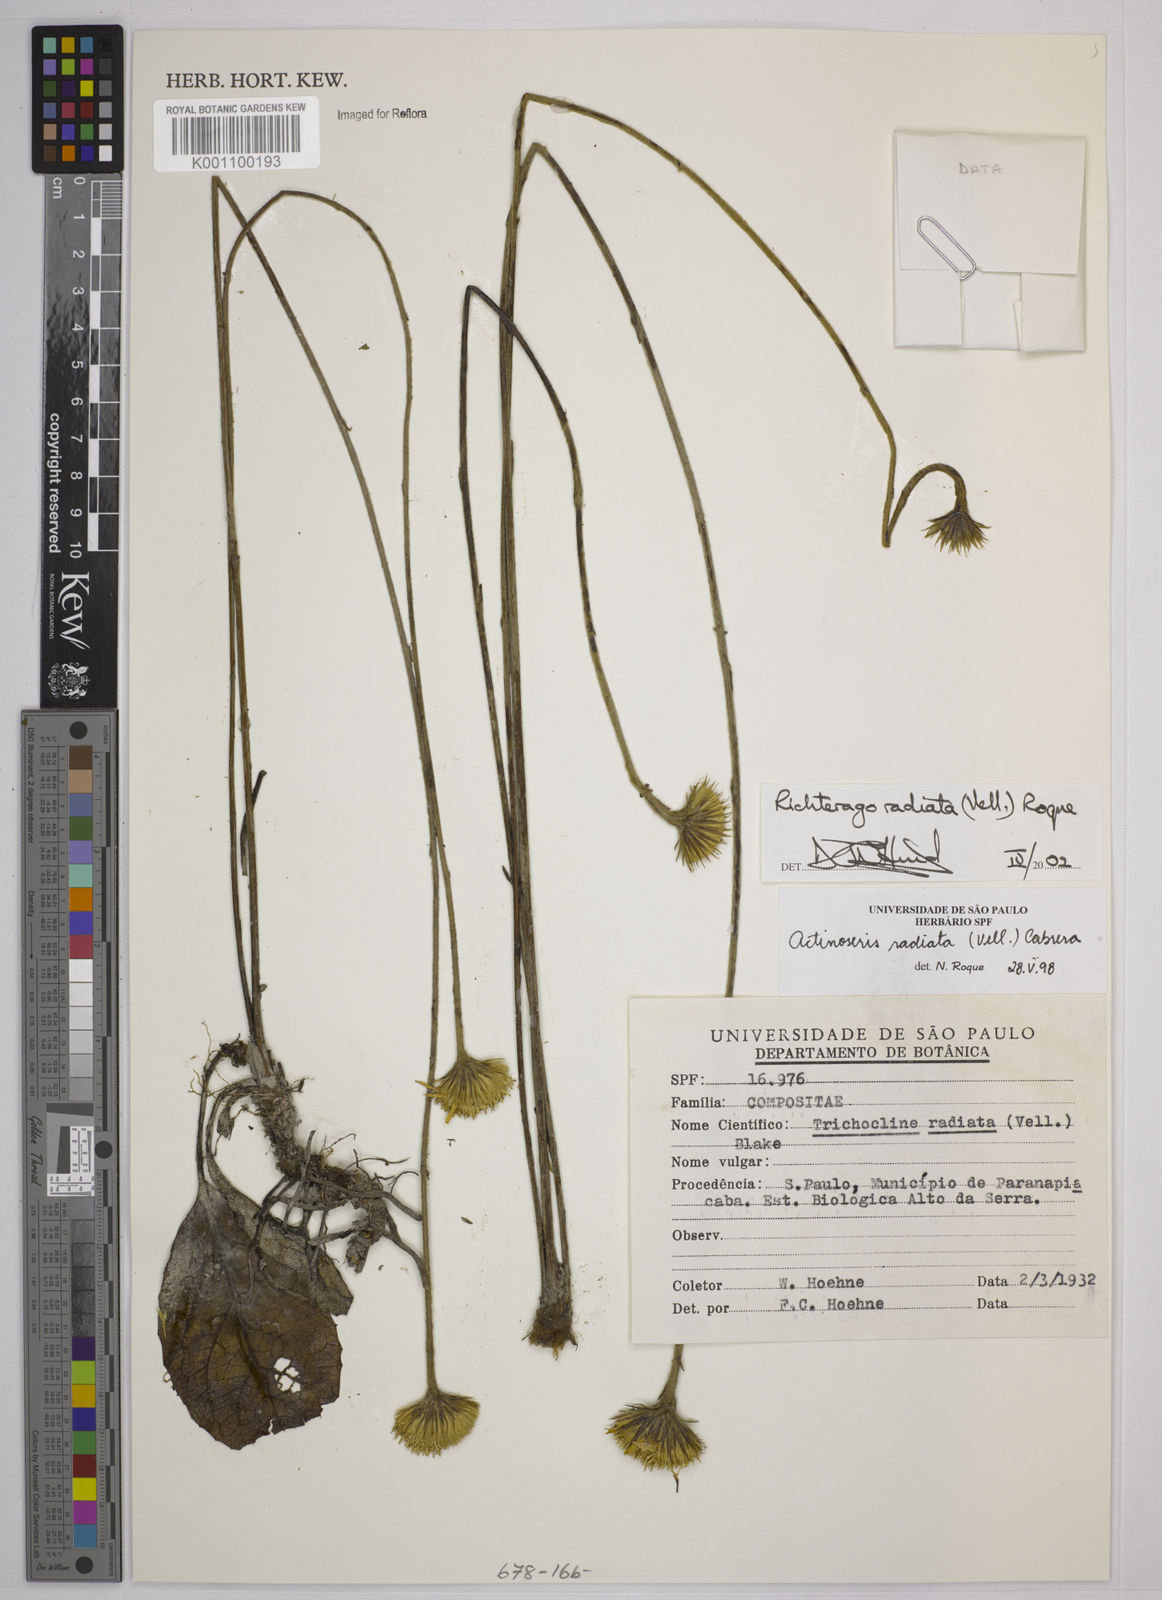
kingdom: Plantae
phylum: Tracheophyta
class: Magnoliopsida
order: Asterales
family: Asteraceae
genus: Richterago
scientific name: Richterago radiata
